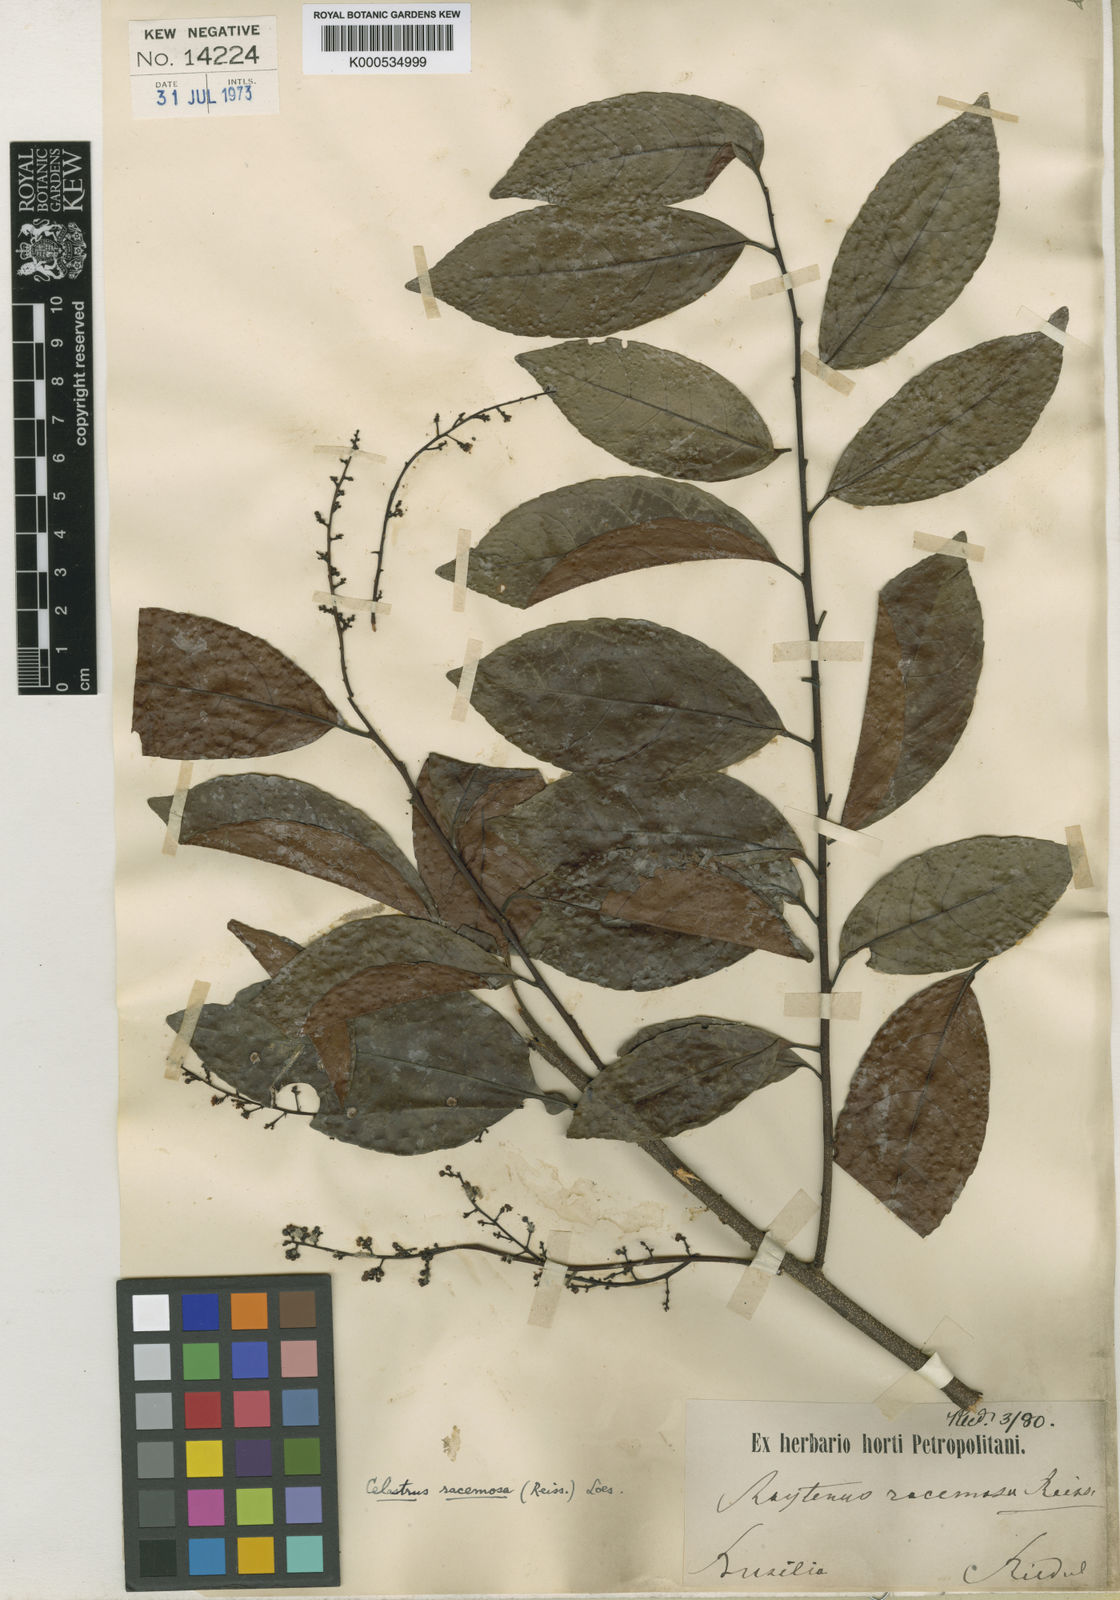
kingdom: Plantae
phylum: Tracheophyta
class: Magnoliopsida
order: Celastrales
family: Celastraceae
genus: Celastrus
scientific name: Celastrus
